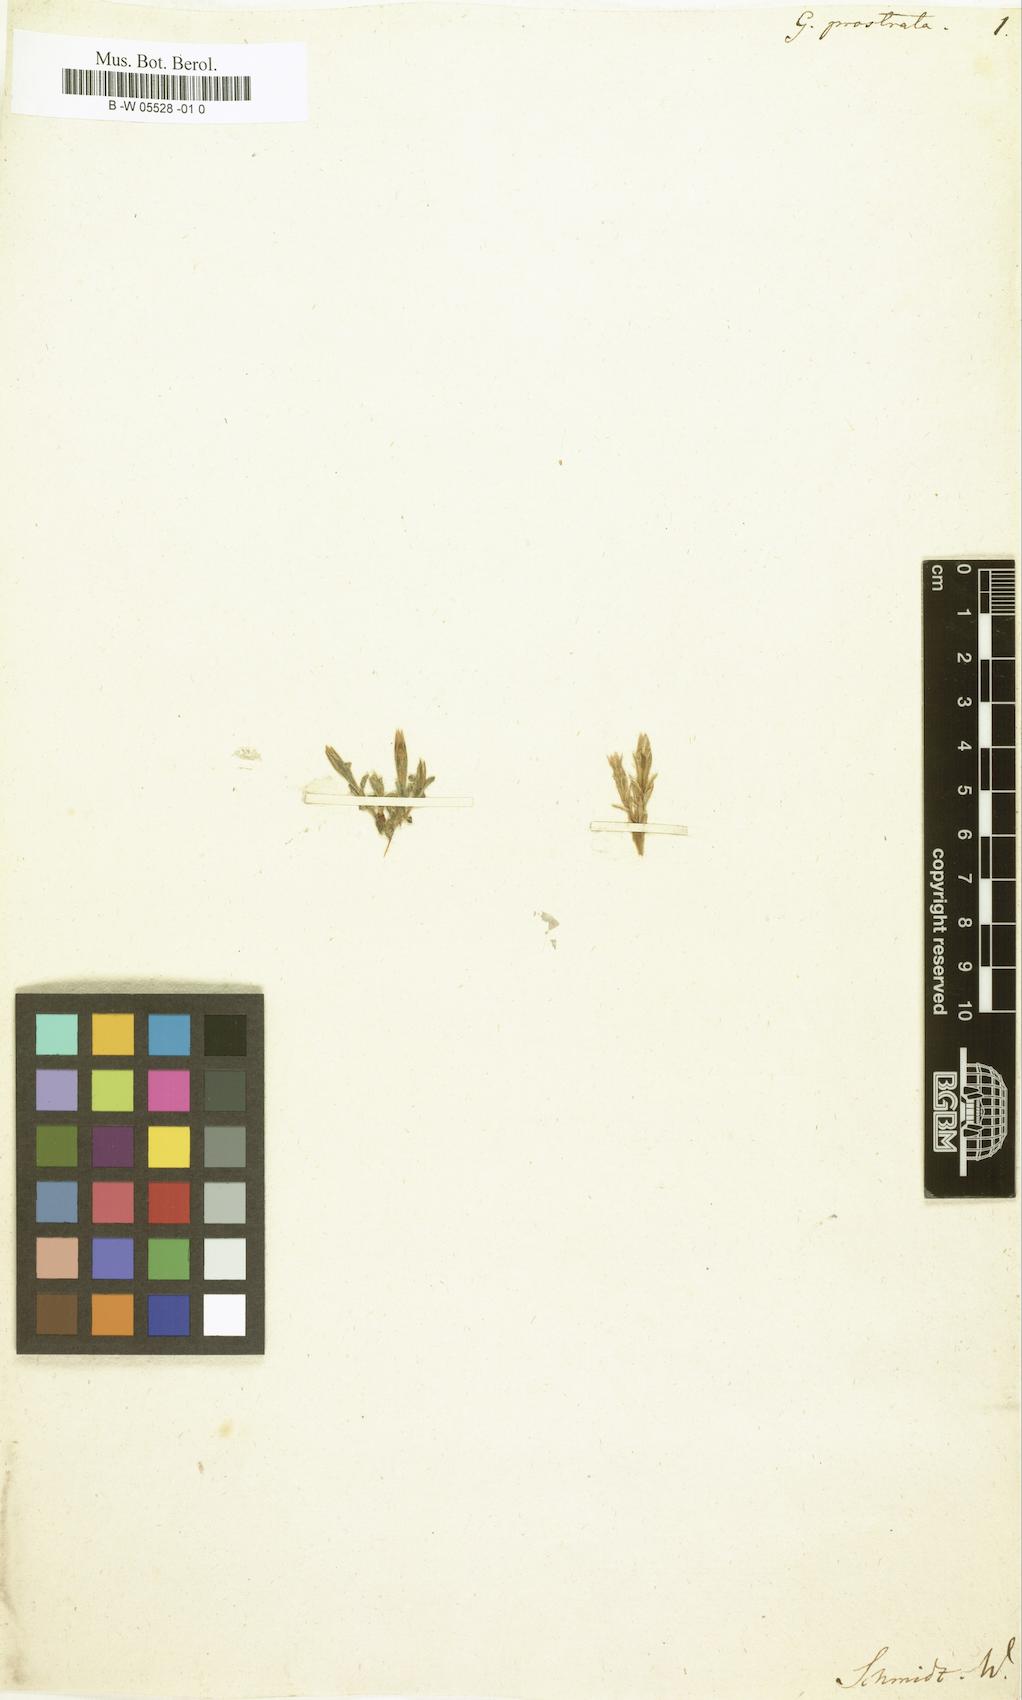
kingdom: Plantae
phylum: Tracheophyta
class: Magnoliopsida
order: Gentianales
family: Gentianaceae
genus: Gentiana
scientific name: Gentiana prostrata
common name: Moss gentian
